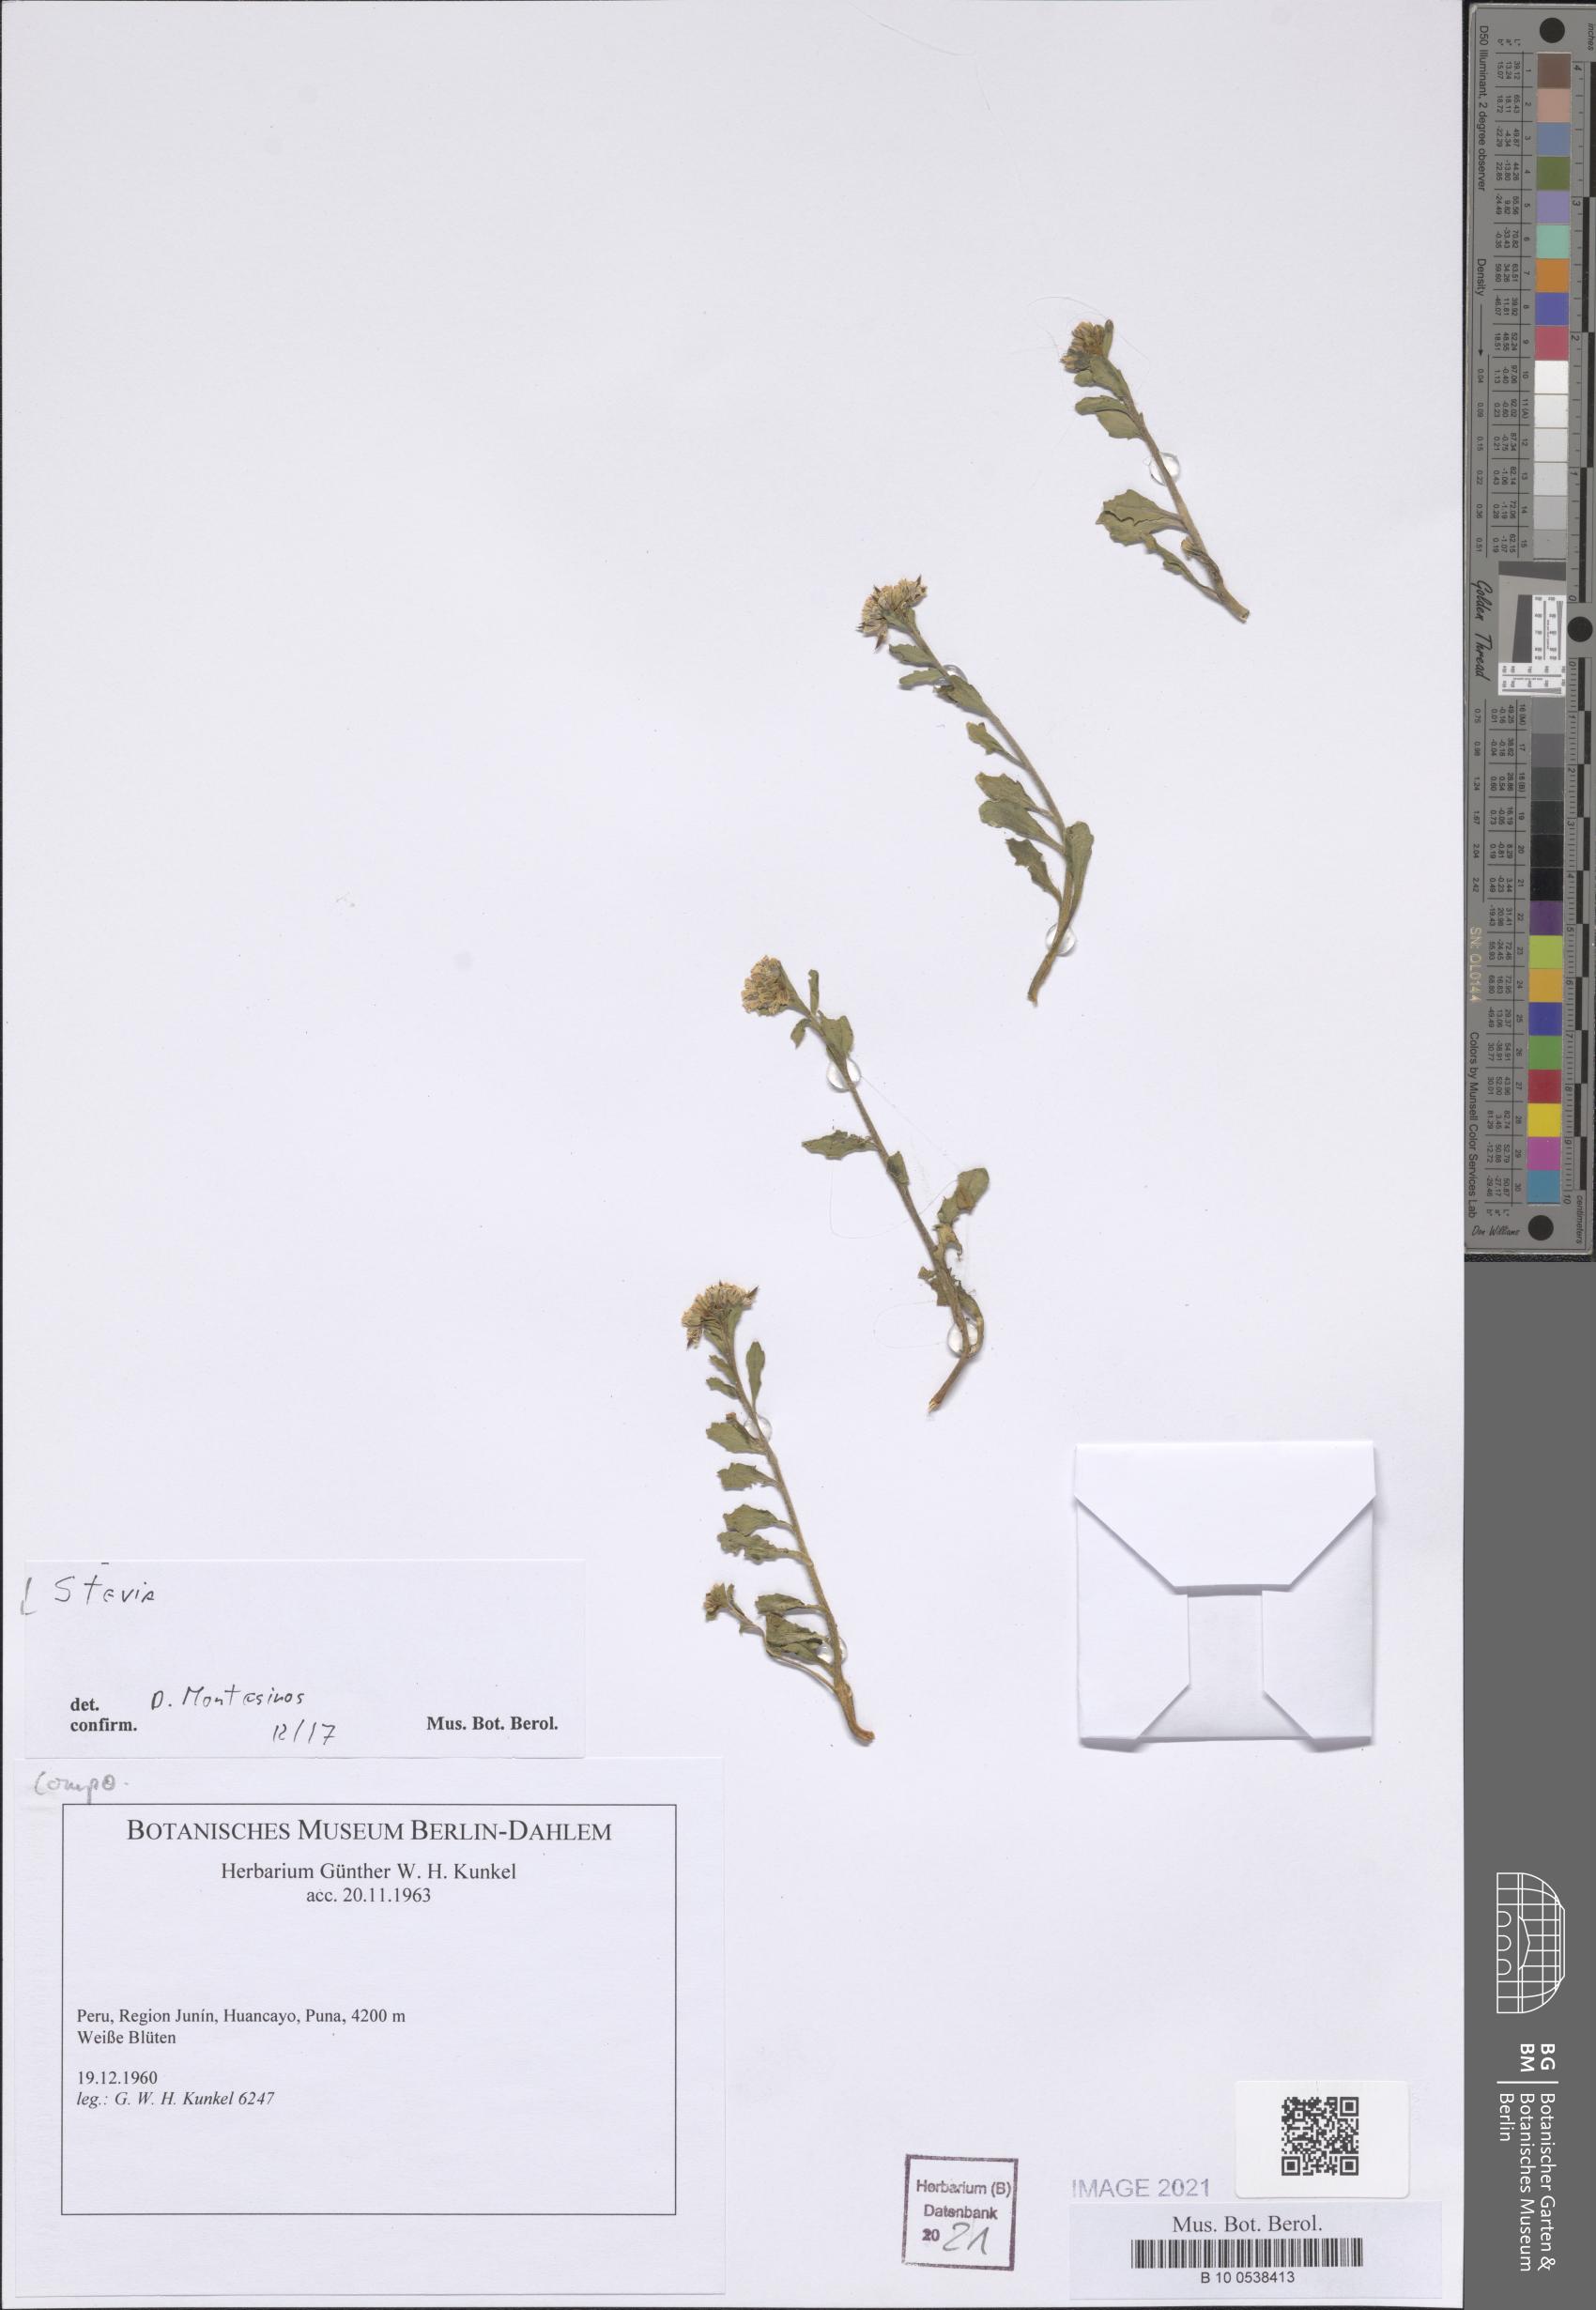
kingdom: Plantae
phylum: Tracheophyta
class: Magnoliopsida
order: Asterales
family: Asteraceae
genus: Helichrysum
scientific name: Helichrysum stoechas
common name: Goldilocks
